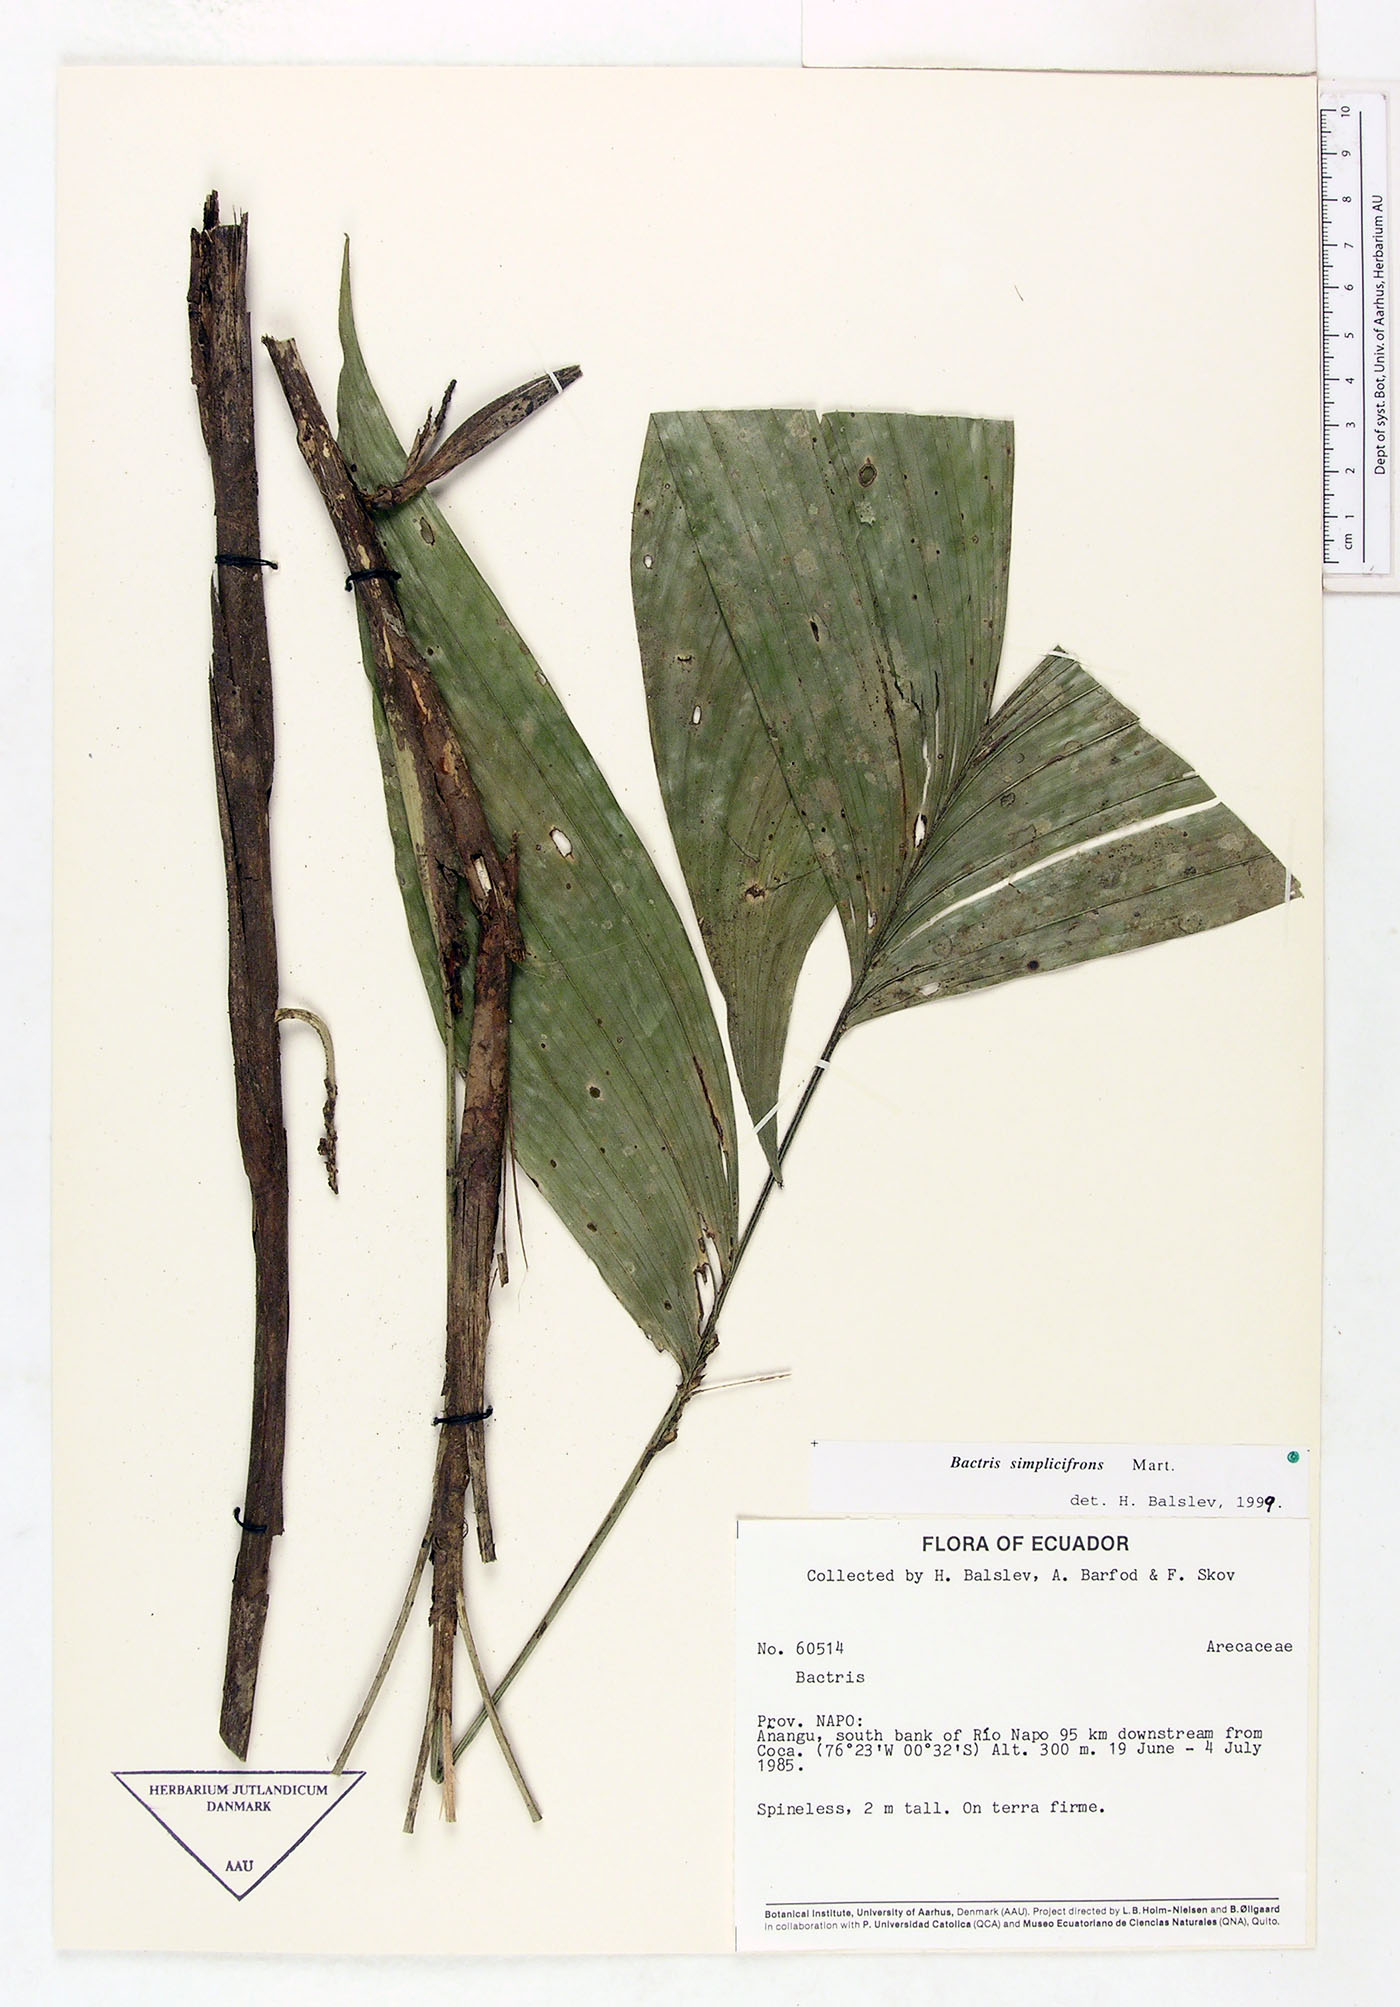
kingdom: Plantae
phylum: Tracheophyta
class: Liliopsida
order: Arecales
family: Arecaceae
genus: Bactris
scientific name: Bactris simplicifrons
